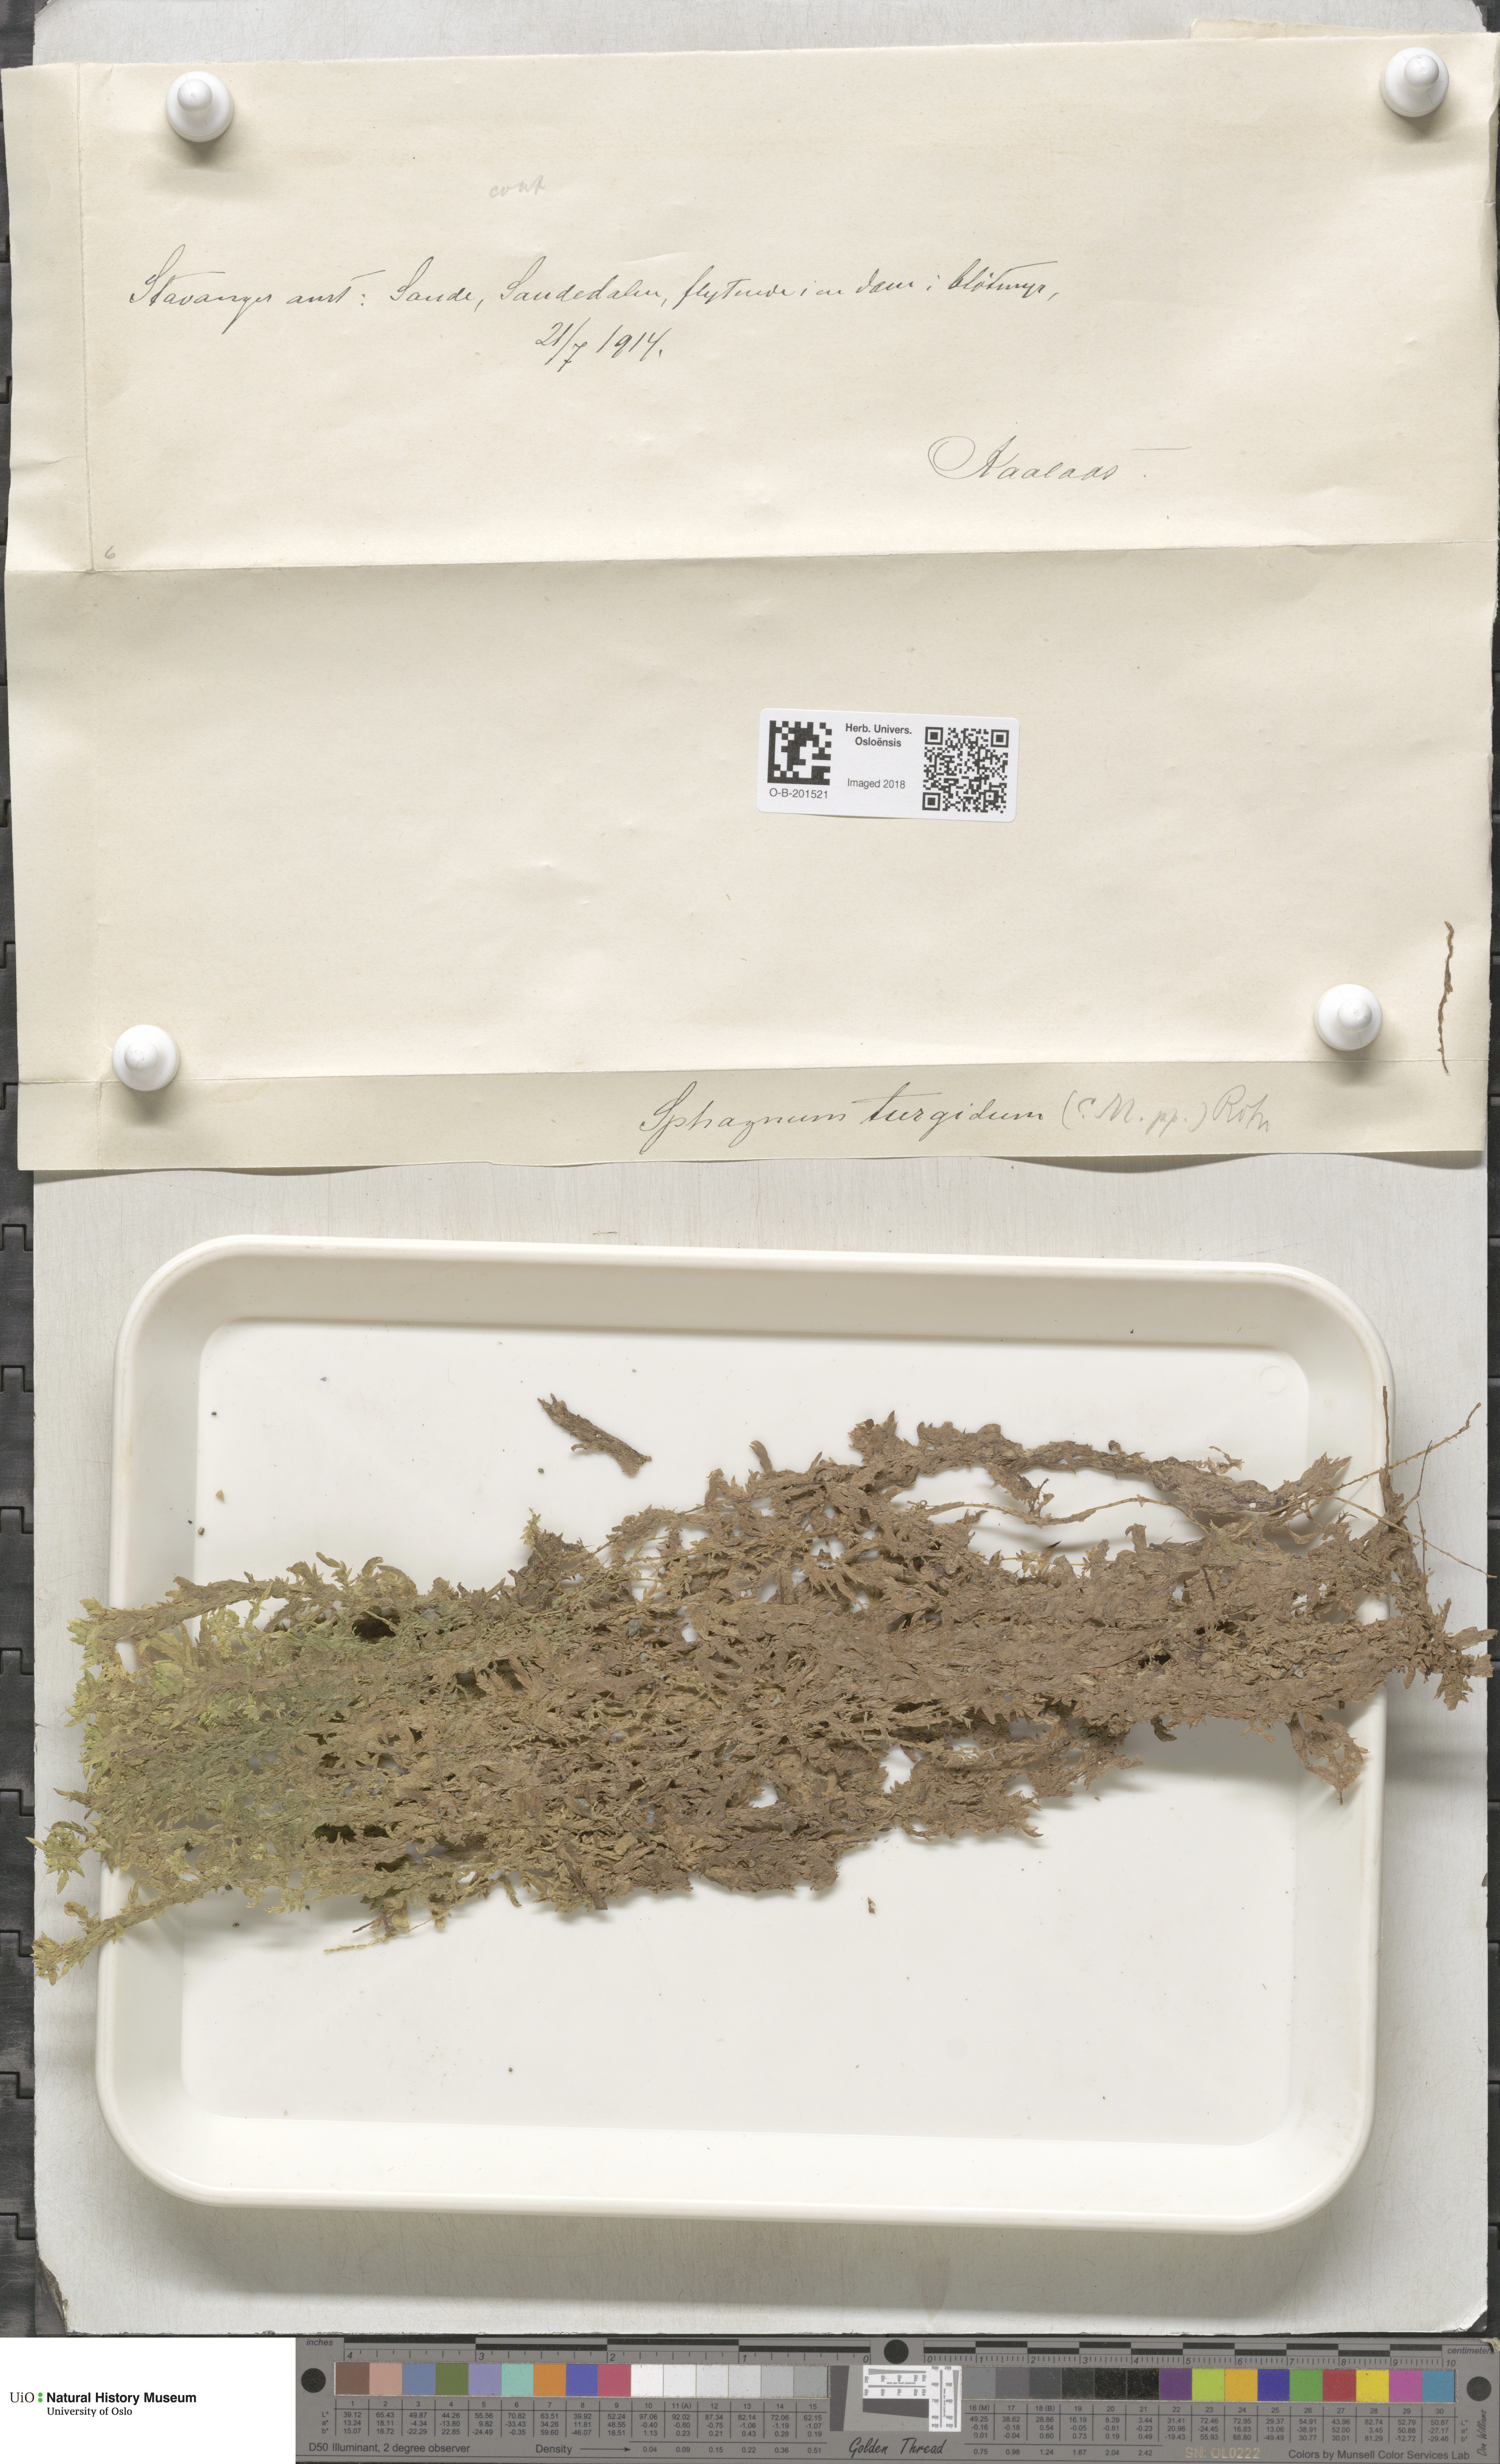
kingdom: Plantae
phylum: Bryophyta
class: Sphagnopsida
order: Sphagnales
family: Sphagnaceae
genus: Sphagnum
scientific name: Sphagnum inundatum
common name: Lesser cow-horn bog-moss
